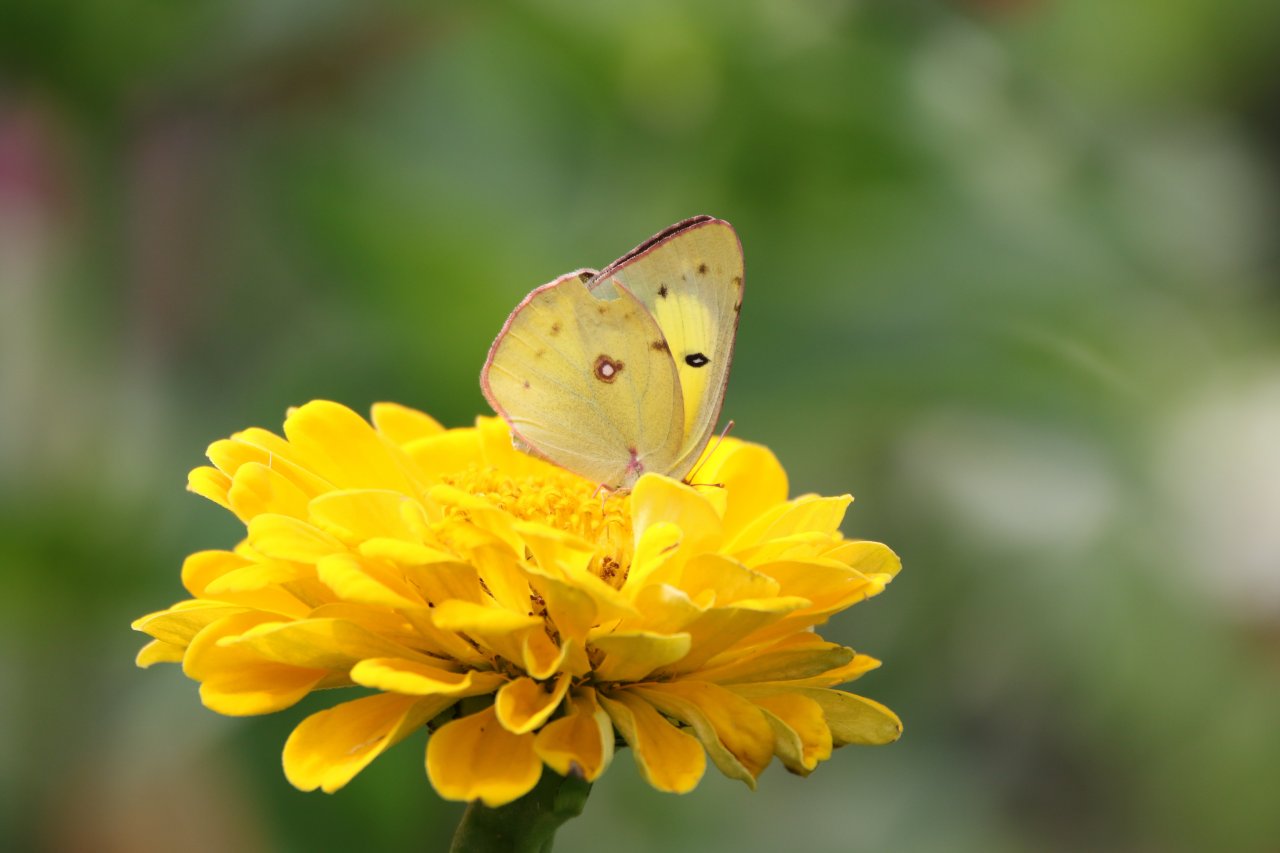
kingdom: Animalia
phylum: Arthropoda
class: Insecta
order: Lepidoptera
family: Pieridae
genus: Colias
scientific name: Colias eurytheme
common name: Orange Sulphur
